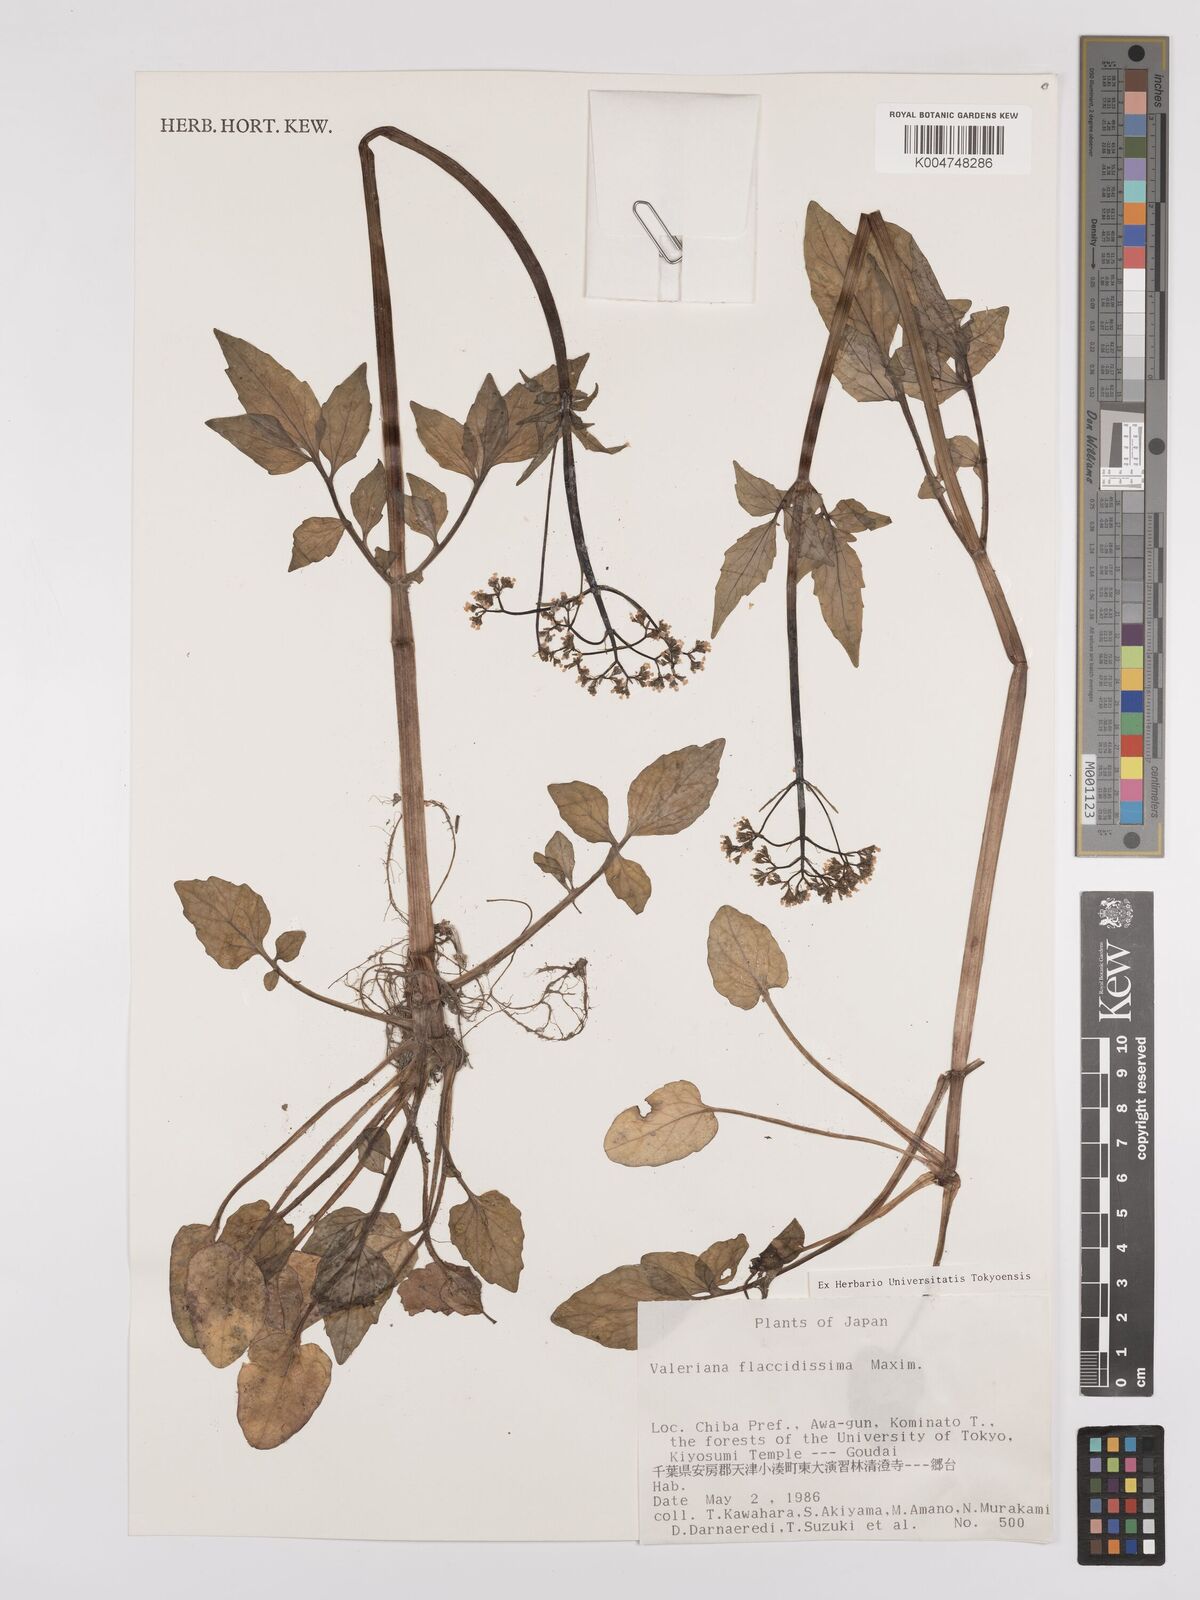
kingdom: Plantae
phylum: Tracheophyta
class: Magnoliopsida
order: Dipsacales
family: Caprifoliaceae
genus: Valeriana
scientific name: Valeriana flaccidissima
